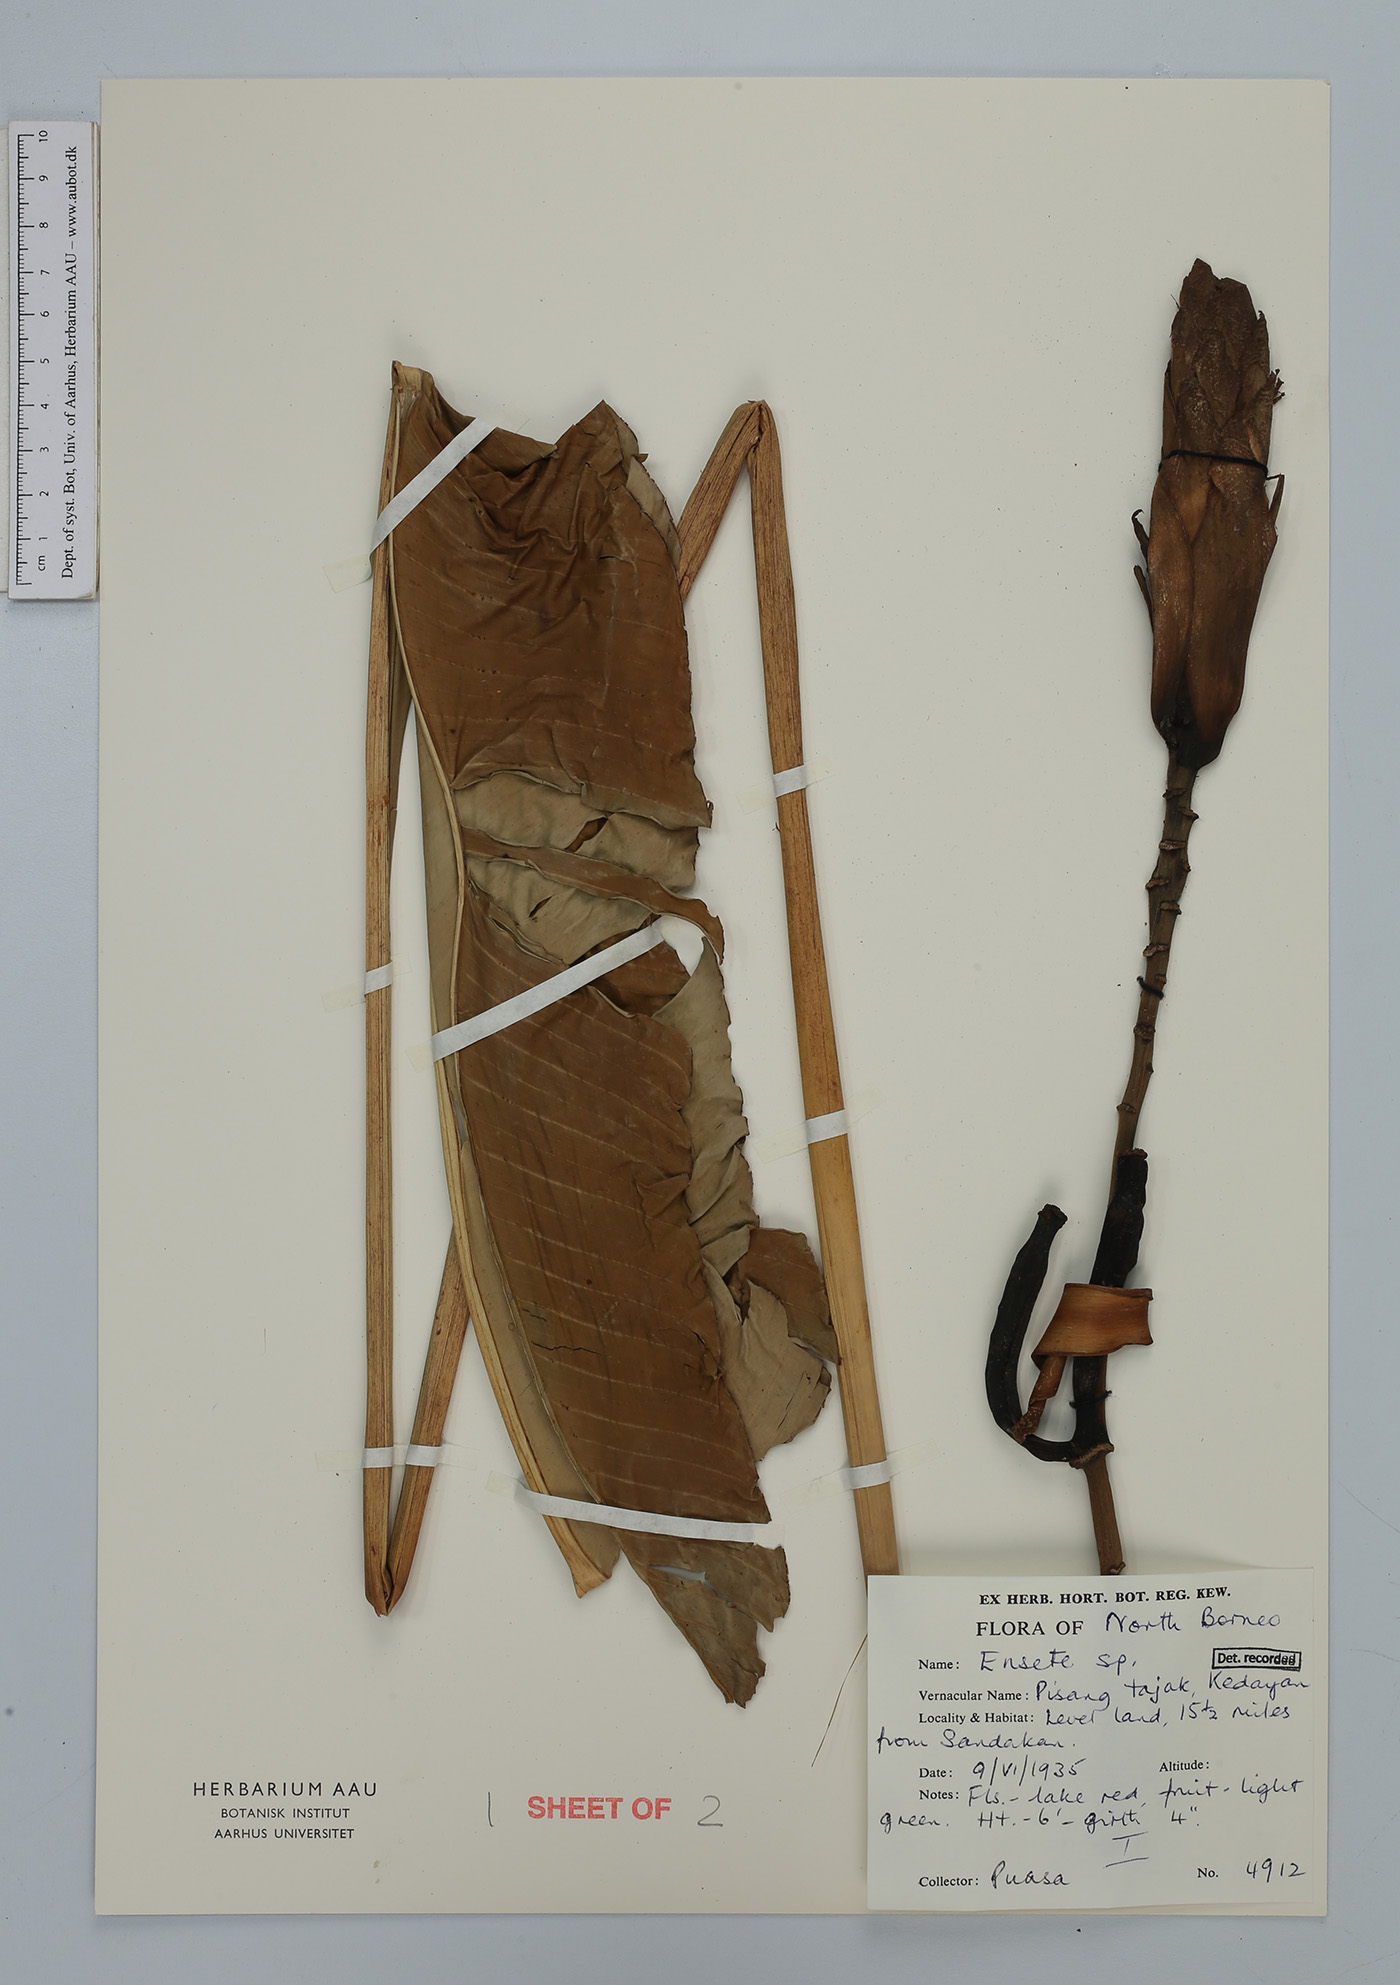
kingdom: Plantae
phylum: Tracheophyta
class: Liliopsida
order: Zingiberales
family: Musaceae
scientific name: Musaceae
